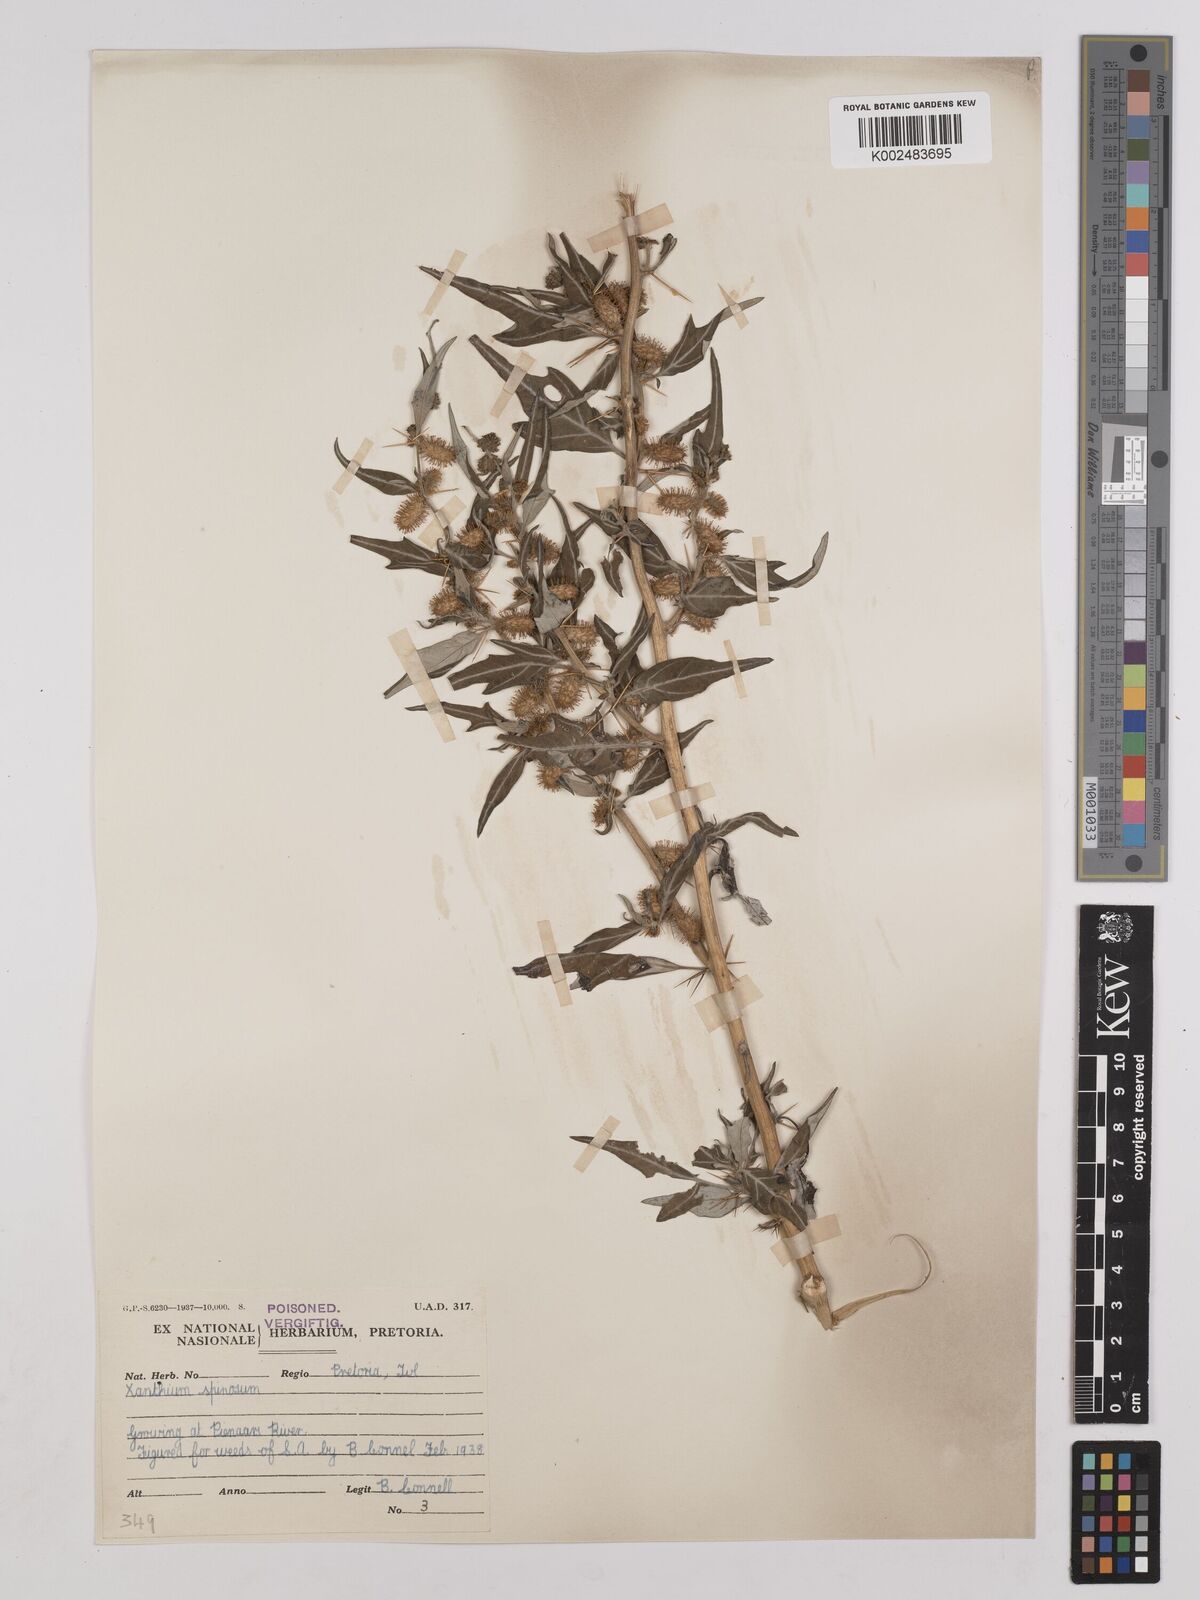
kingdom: Plantae
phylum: Tracheophyta
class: Magnoliopsida
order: Asterales
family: Asteraceae
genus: Xanthium
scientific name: Xanthium spinosum
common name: Spiny cocklebur
